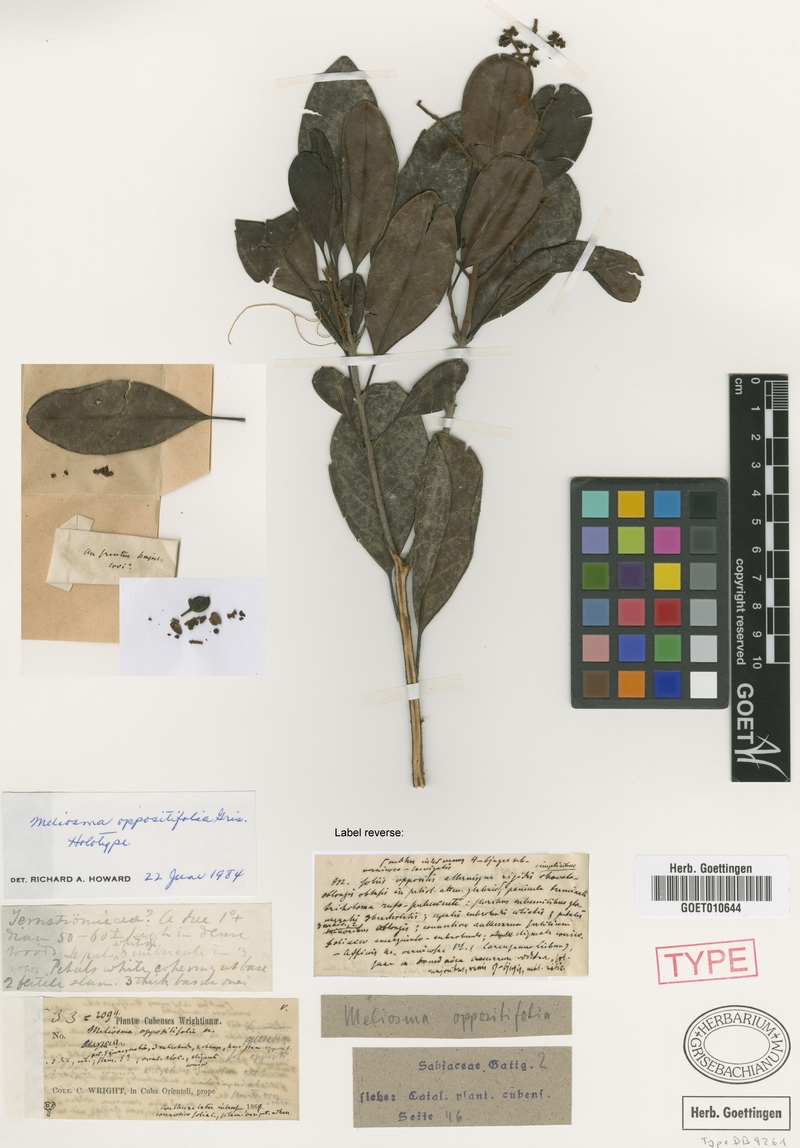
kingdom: Plantae
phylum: Tracheophyta
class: Magnoliopsida
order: Proteales
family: Sabiaceae
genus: Meliosma
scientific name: Meliosma oppositifolia
